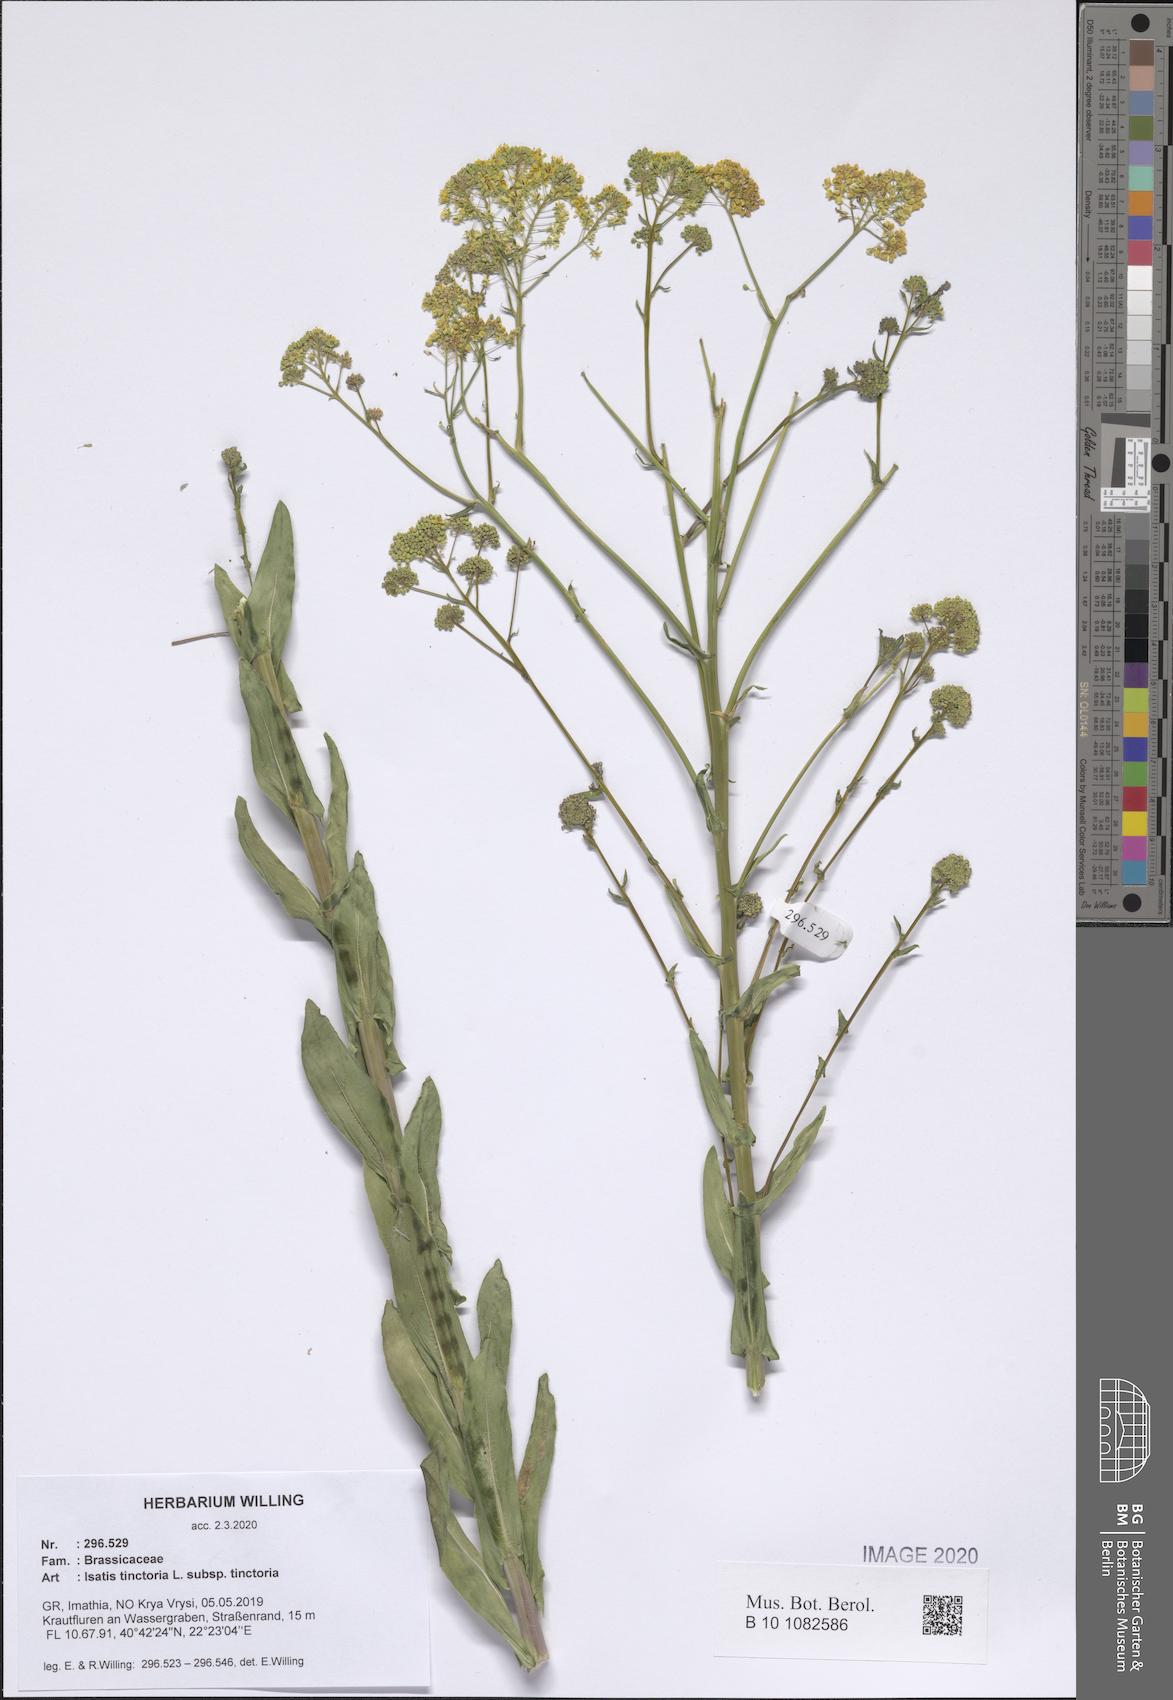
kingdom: Plantae
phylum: Tracheophyta
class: Magnoliopsida
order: Brassicales
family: Brassicaceae
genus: Isatis
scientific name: Isatis tinctoria
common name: Woad
